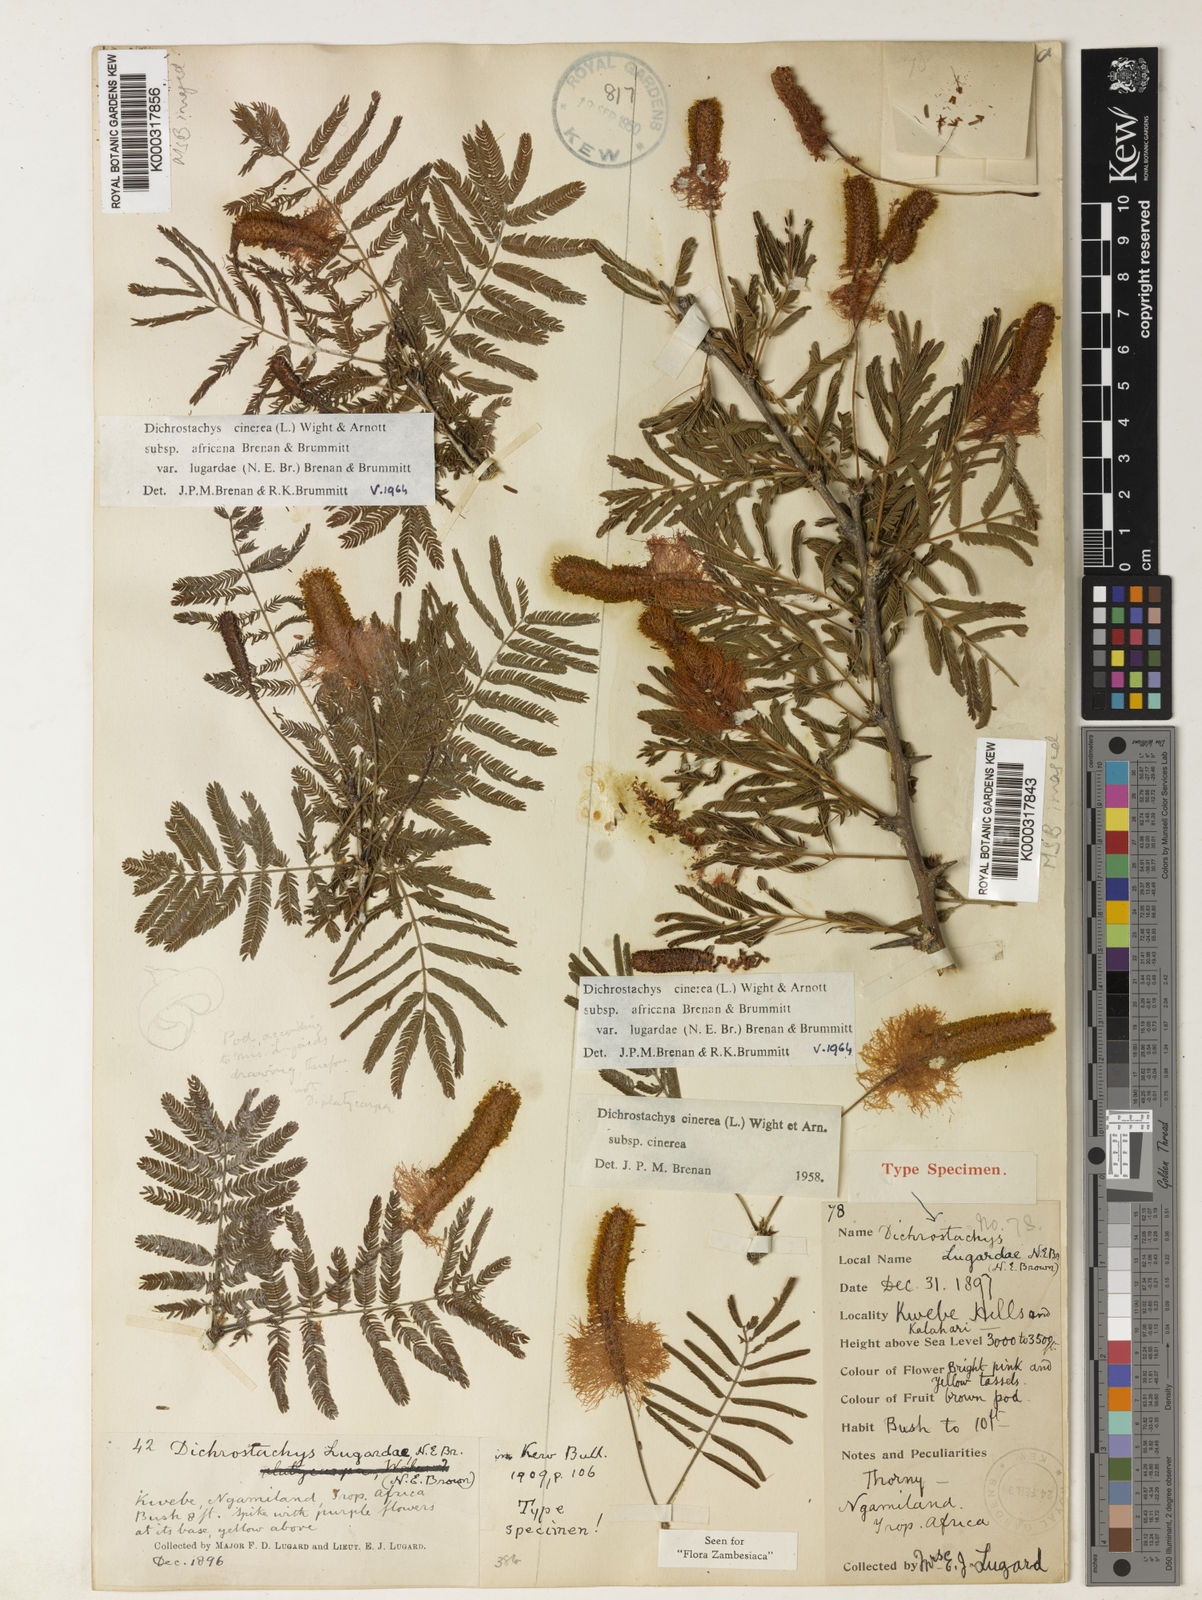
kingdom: Plantae
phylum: Tracheophyta
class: Magnoliopsida
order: Fabales
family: Fabaceae
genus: Dichrostachys
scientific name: Dichrostachys cinerea
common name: Sicklebush
